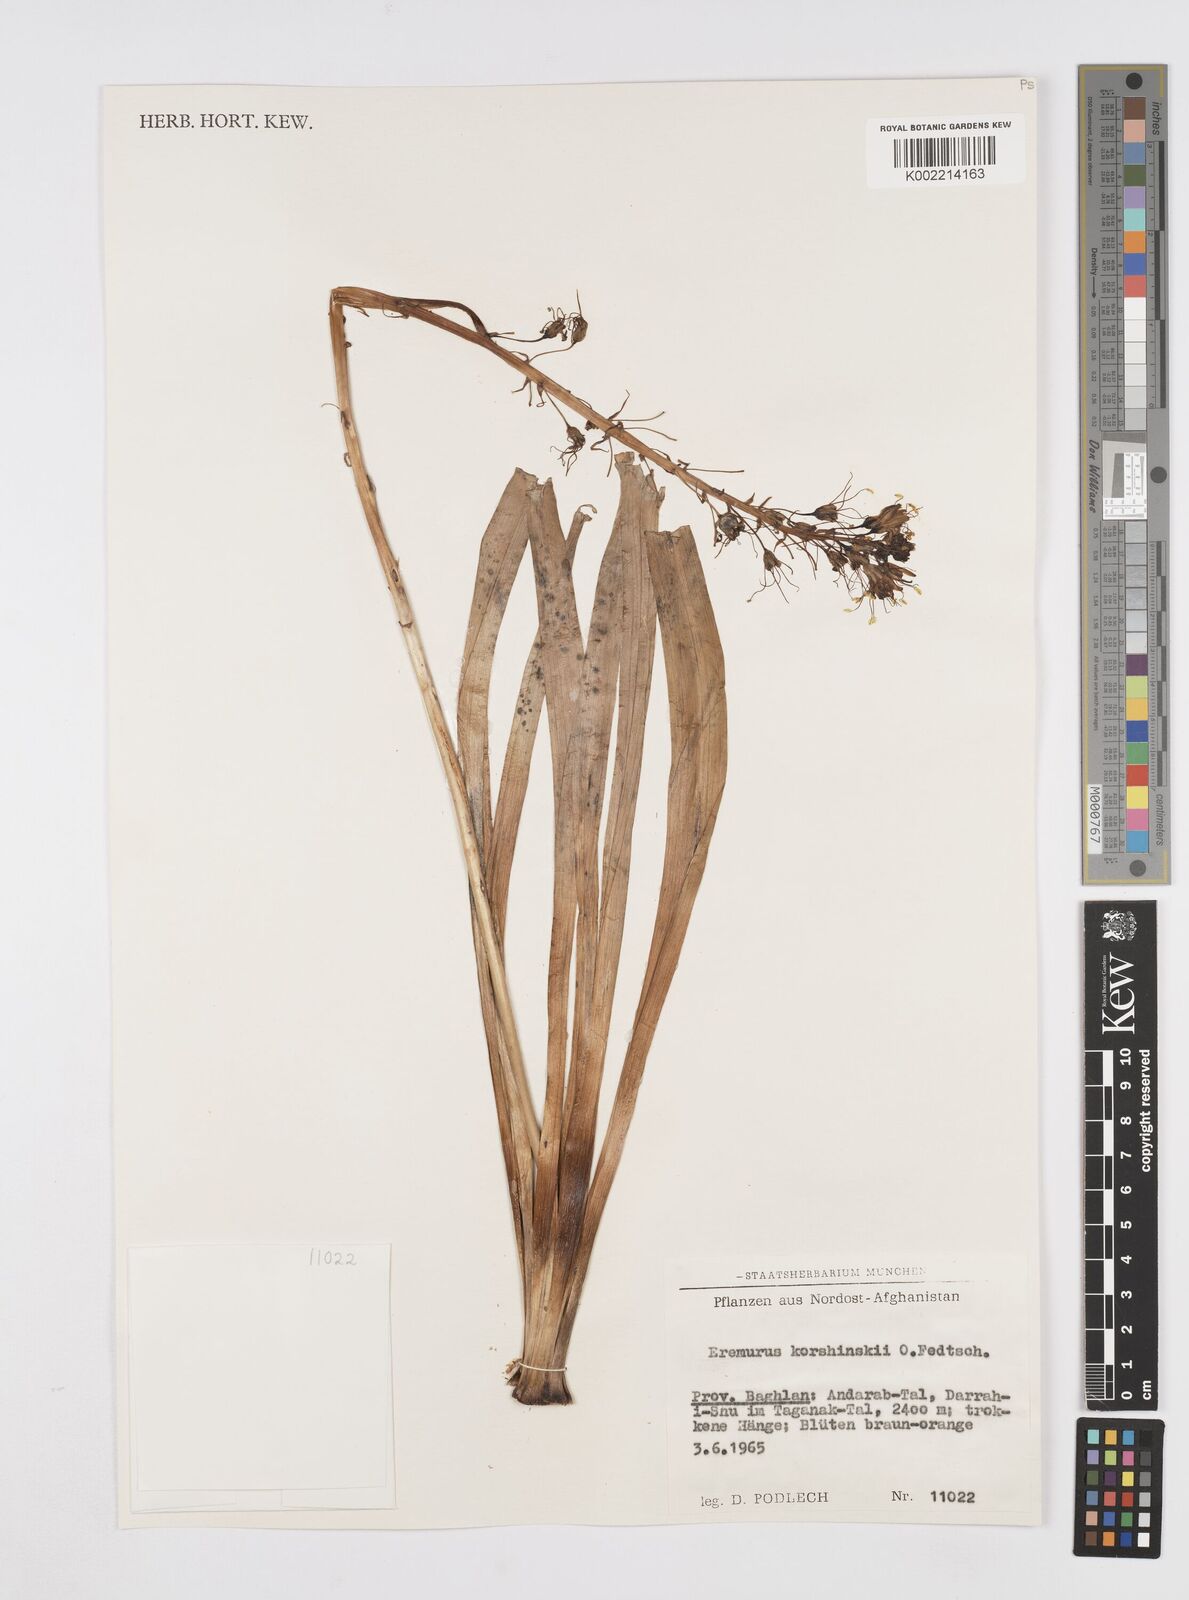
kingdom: Plantae
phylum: Tracheophyta
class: Liliopsida
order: Asparagales
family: Asphodelaceae
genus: Eremurus
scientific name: Eremurus korshinskyi
